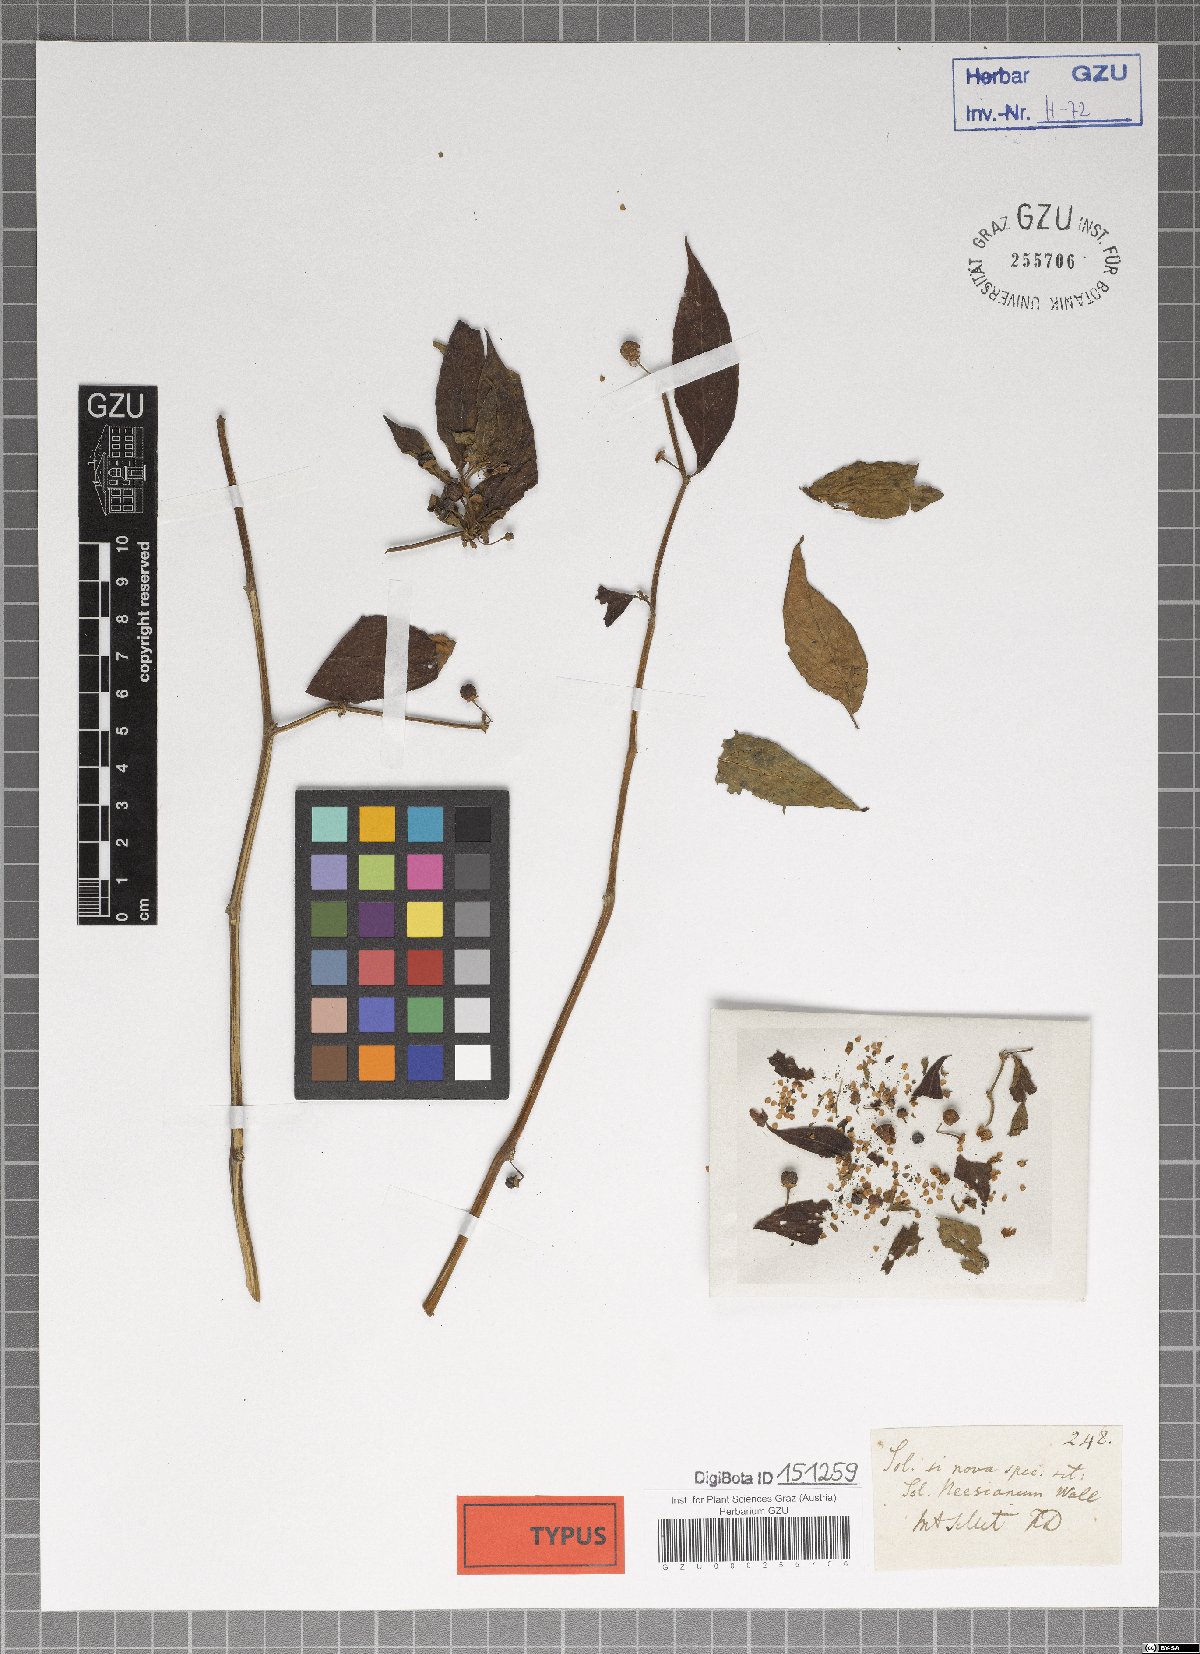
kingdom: Plantae
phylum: Tracheophyta
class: Magnoliopsida
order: Solanales
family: Solanaceae
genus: Lycianthes
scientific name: Lycianthes neesiana
